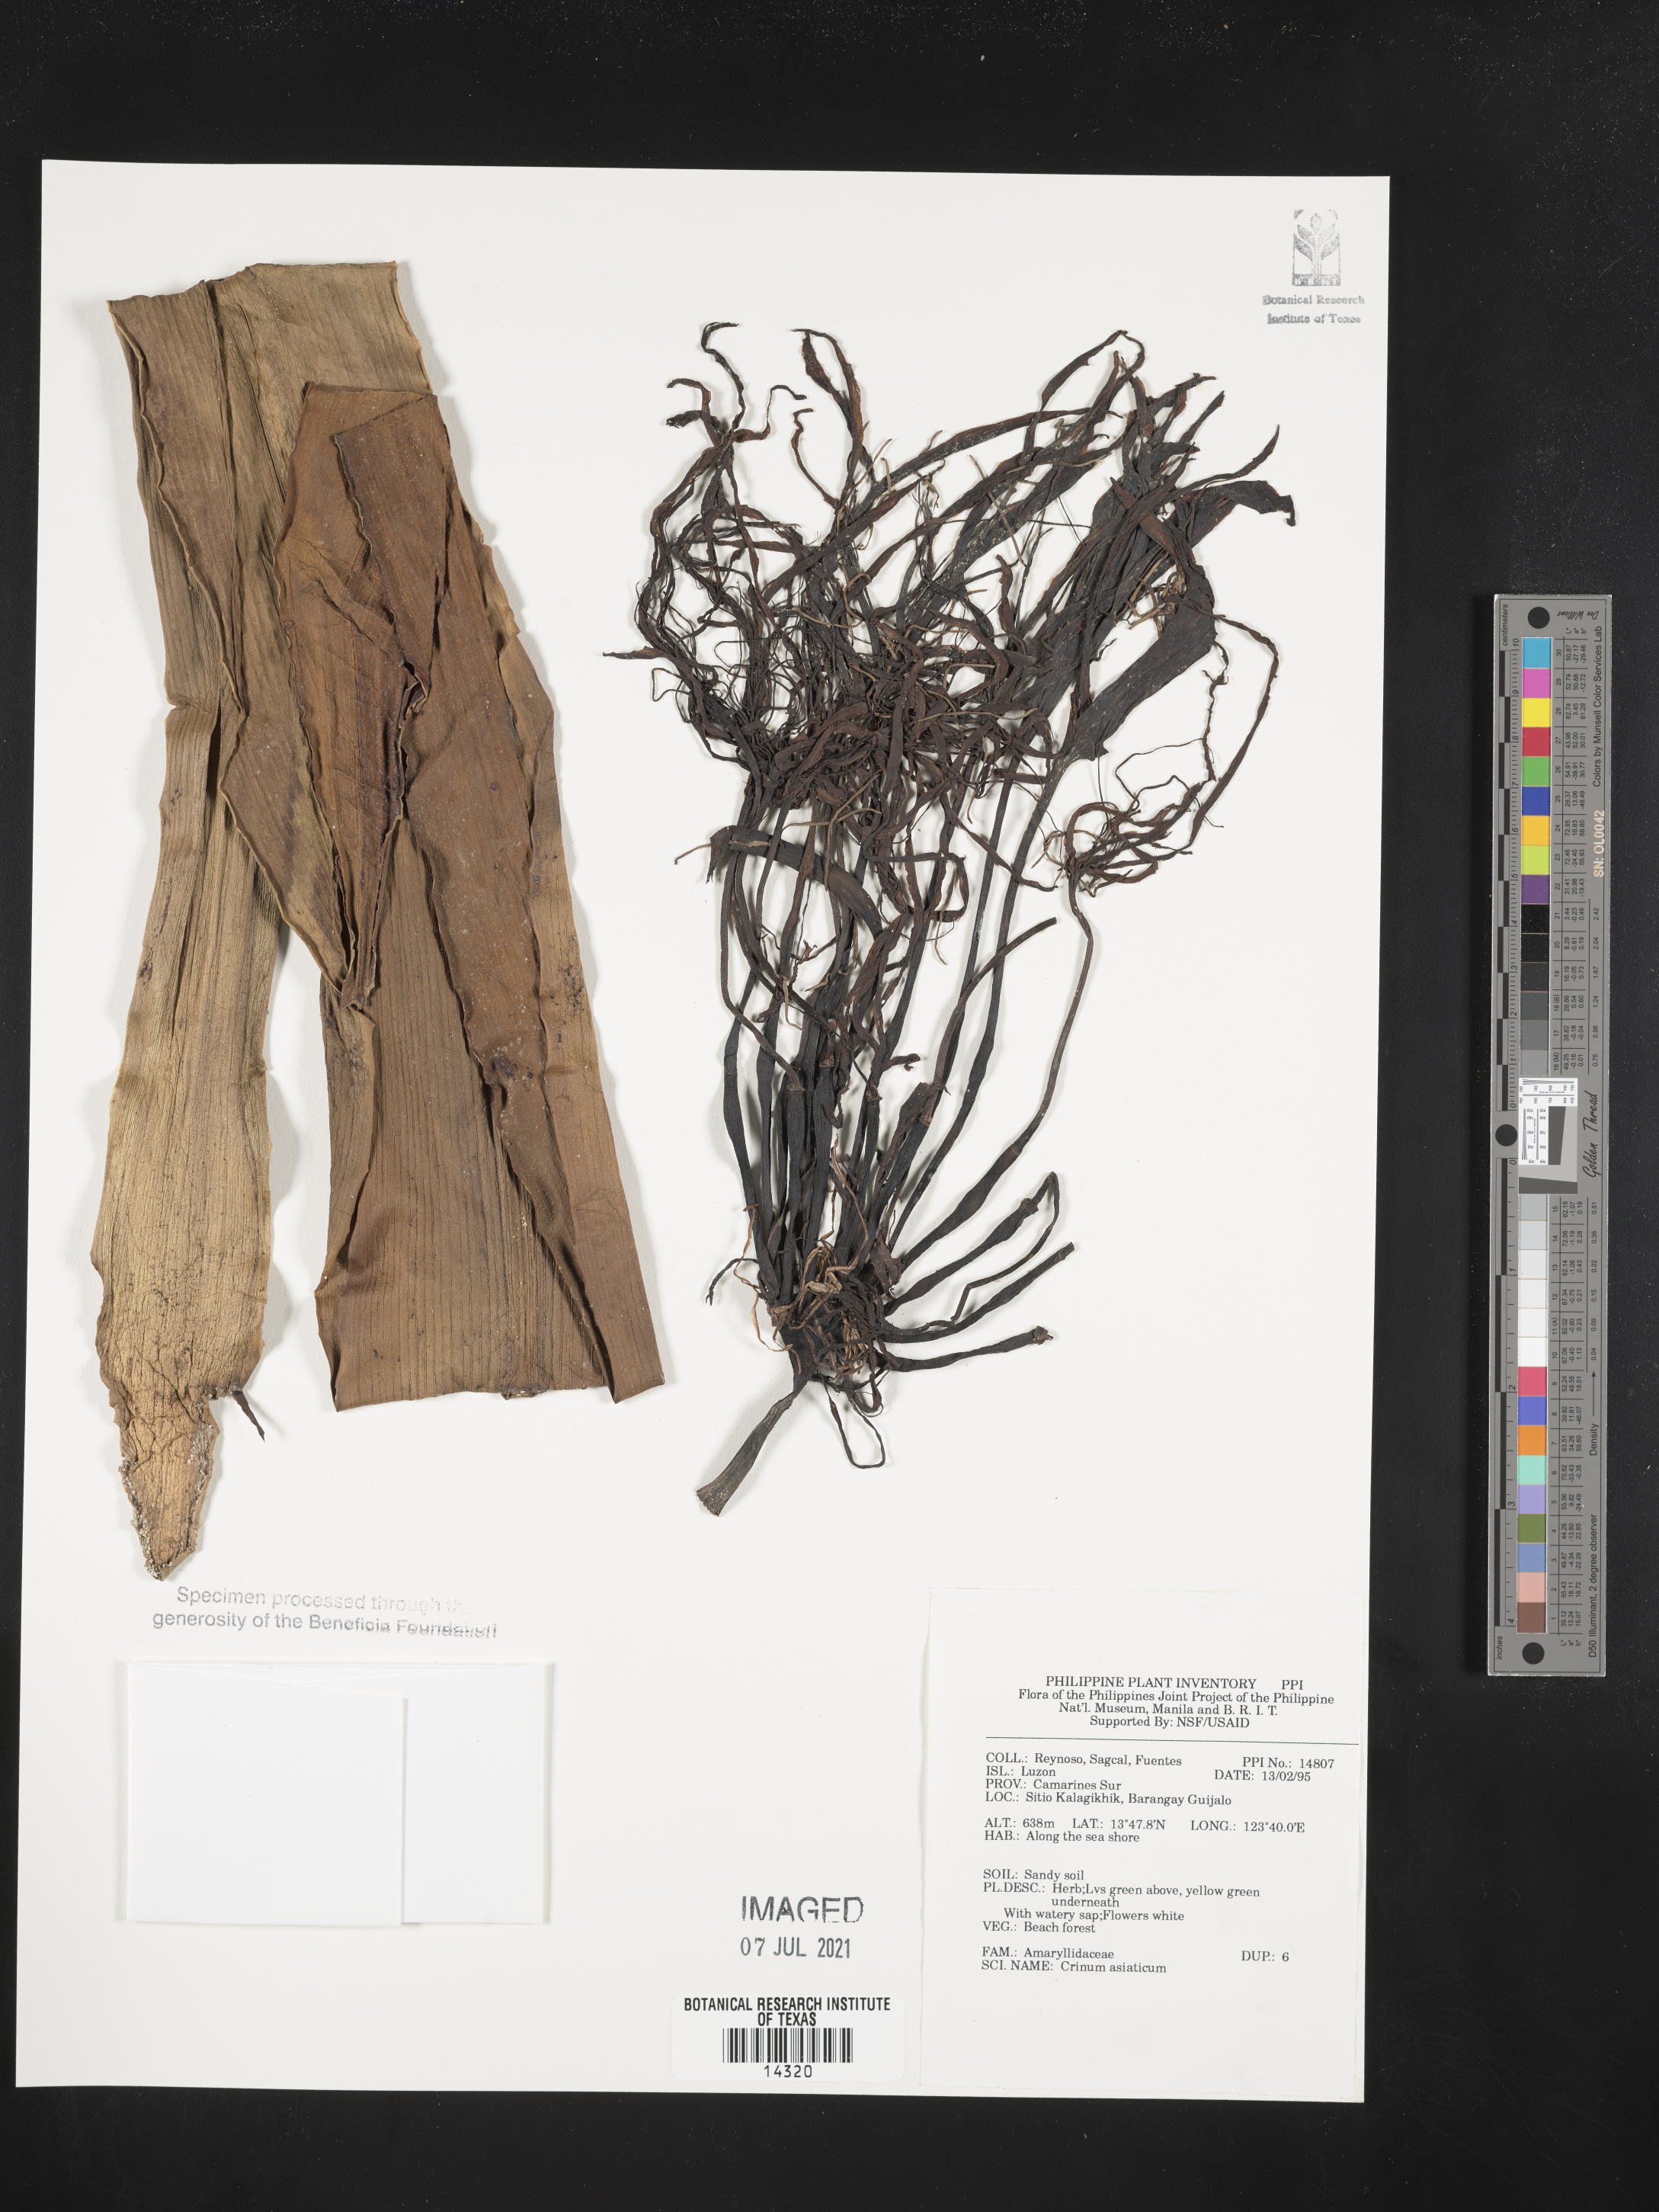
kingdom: Plantae
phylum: Tracheophyta
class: Liliopsida
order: Asparagales
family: Amaryllidaceae
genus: Crinum
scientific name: Crinum asiaticum
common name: Poisonbulb
